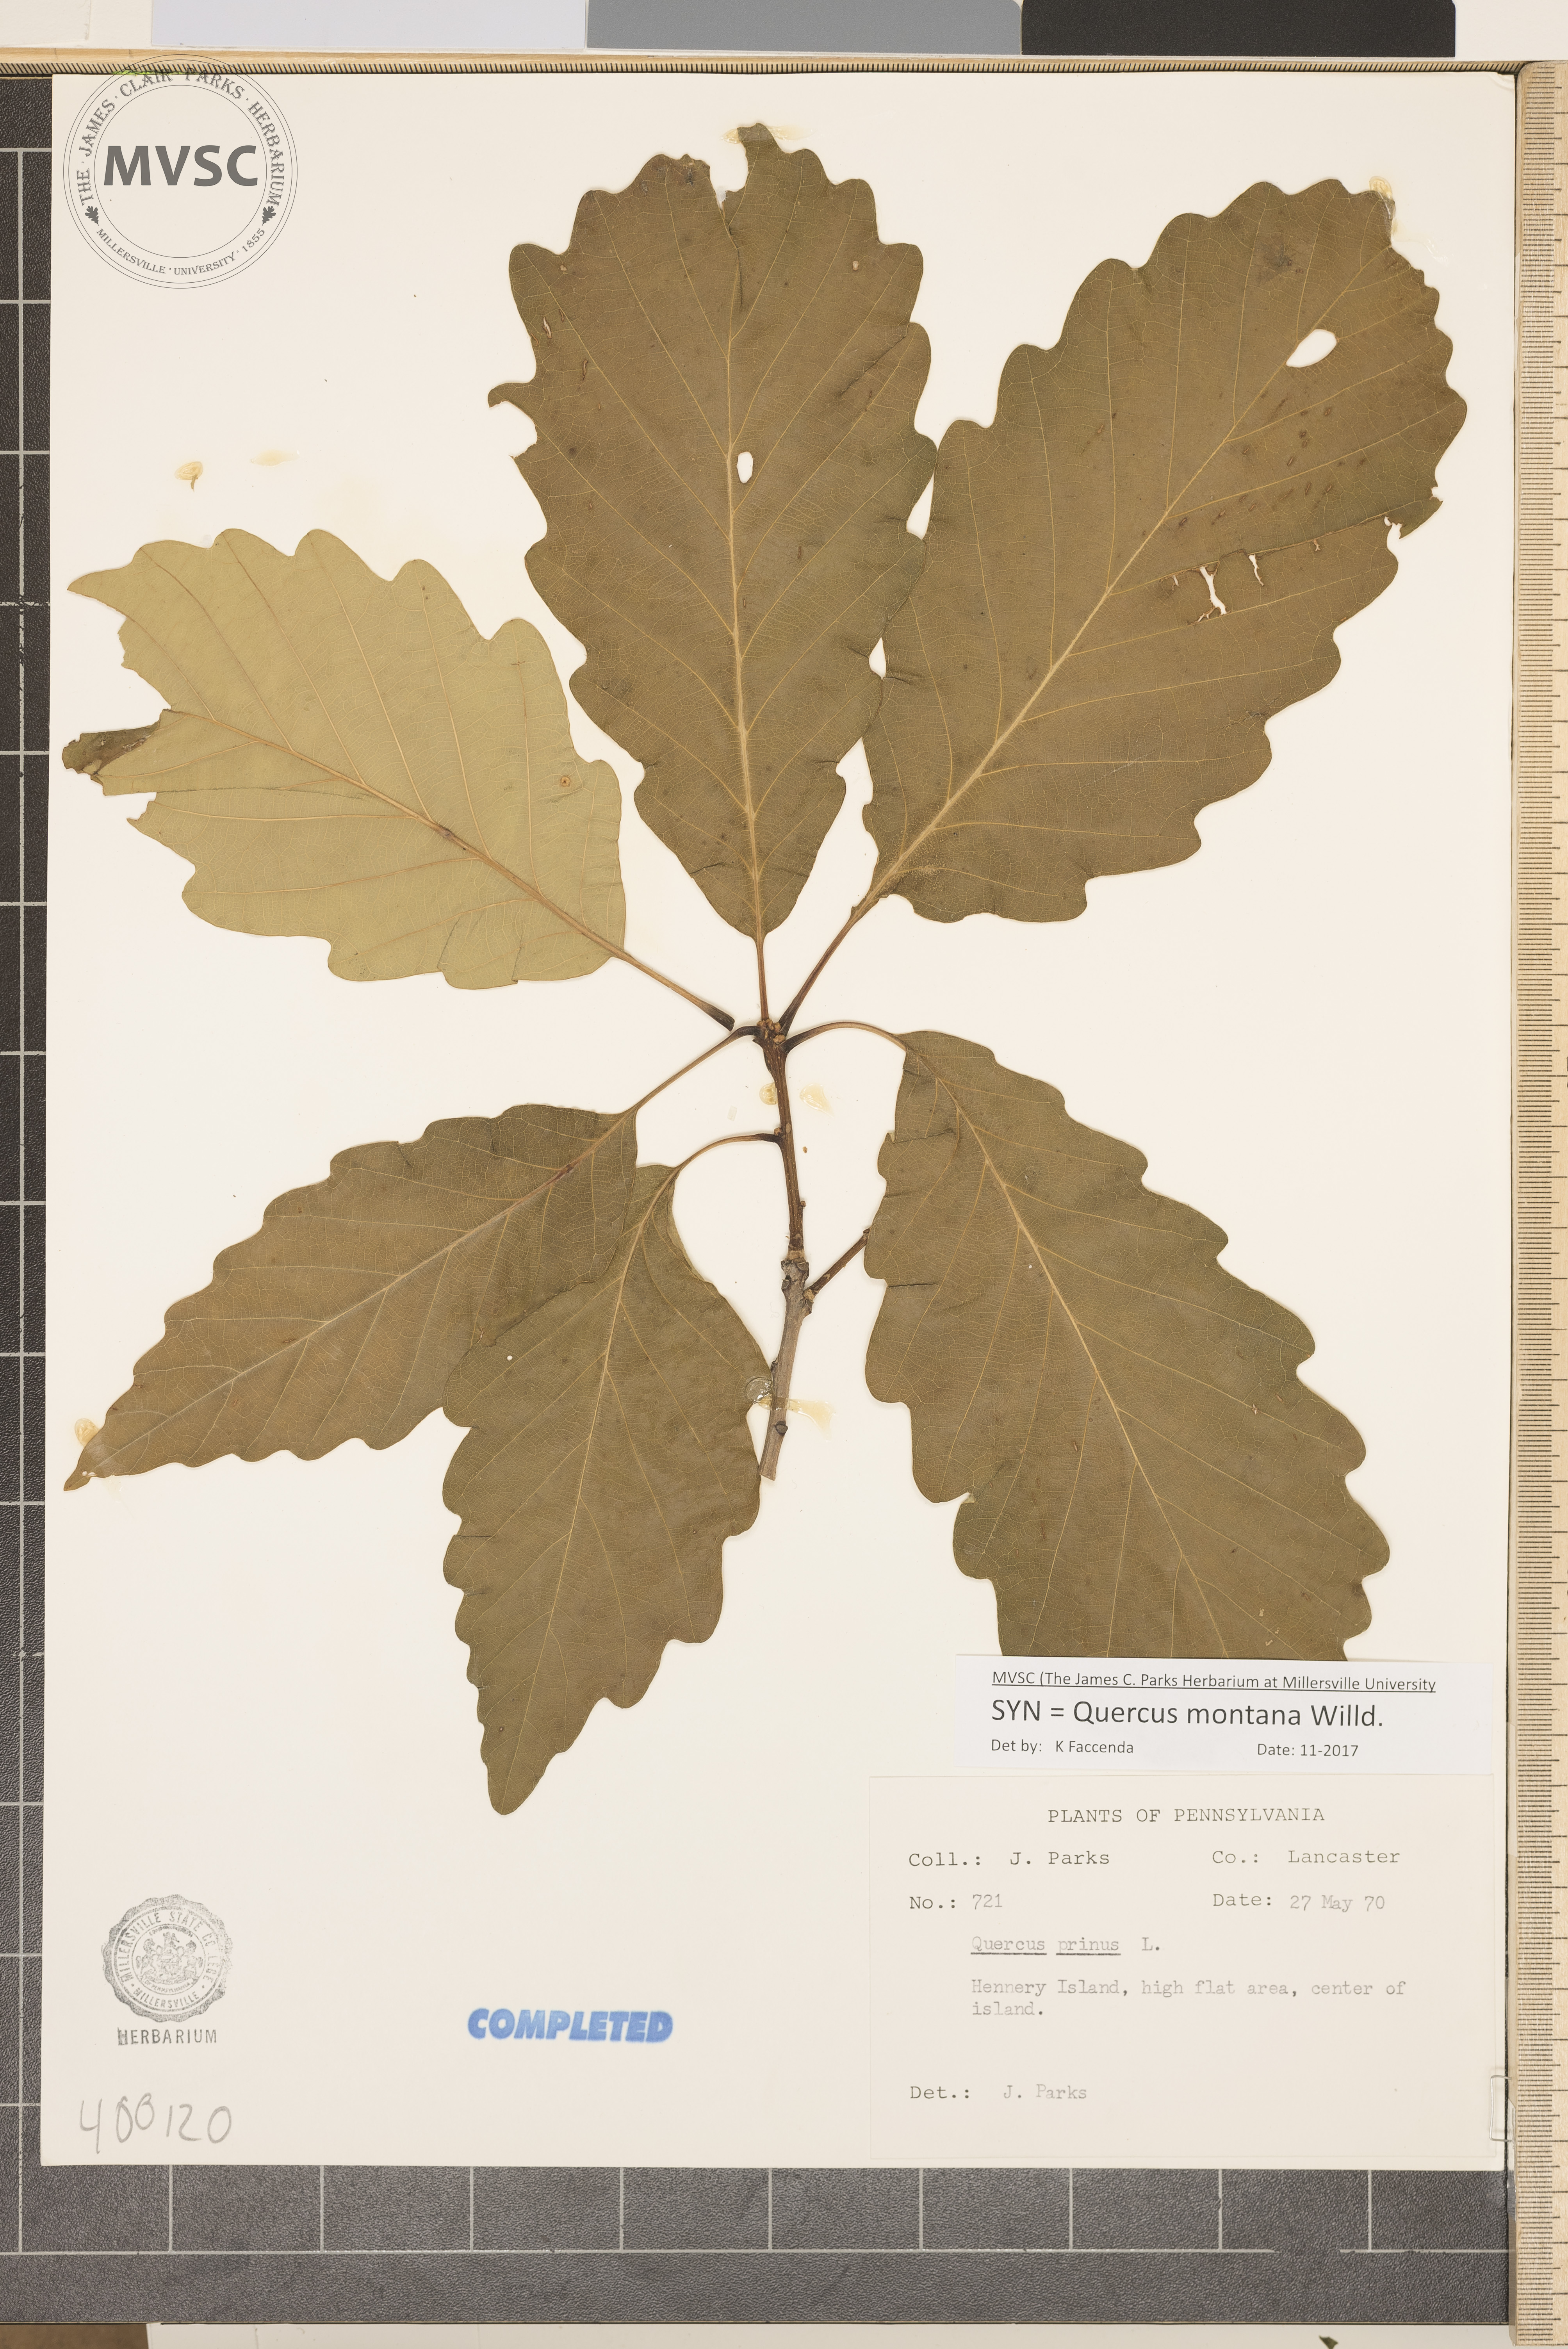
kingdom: Plantae
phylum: Tracheophyta
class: Magnoliopsida
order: Fagales
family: Fagaceae
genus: Quercus
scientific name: Quercus montana
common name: chestnut oak
